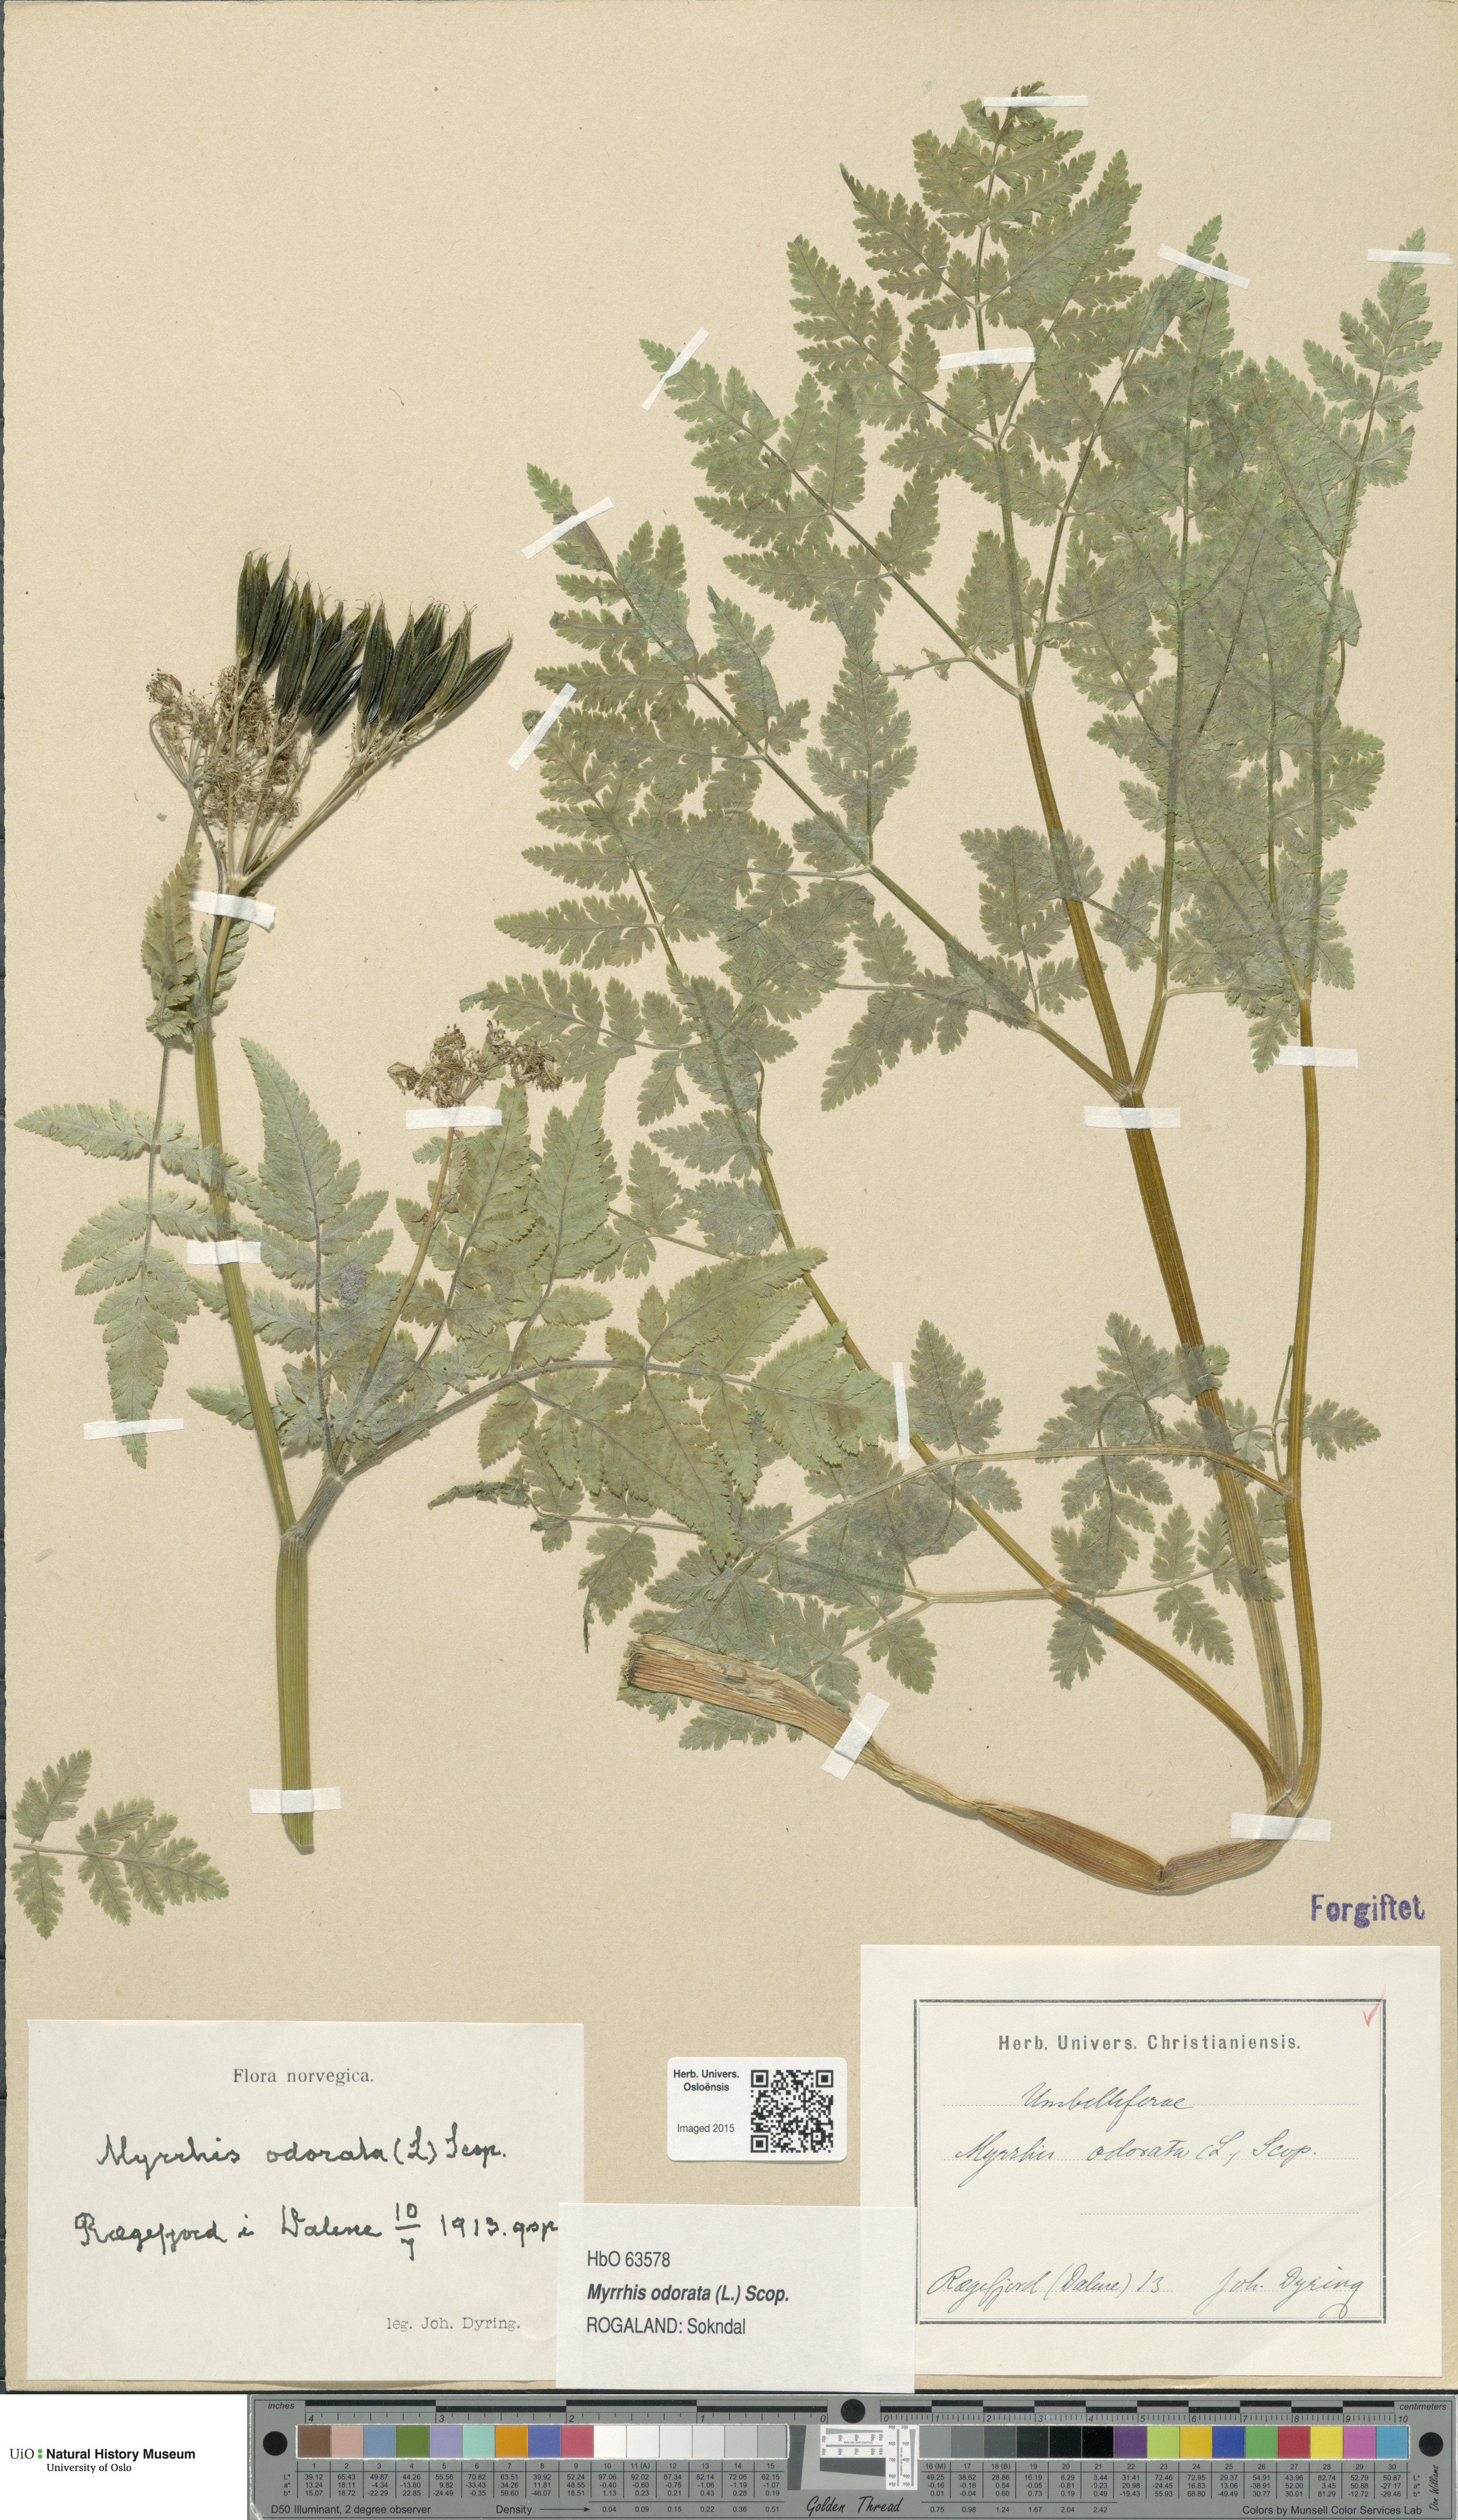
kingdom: Plantae
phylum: Tracheophyta
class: Magnoliopsida
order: Apiales
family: Apiaceae
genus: Myrrhis
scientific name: Myrrhis odorata
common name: Sweet cicely
